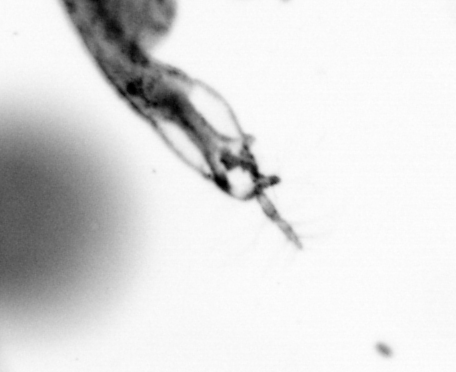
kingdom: Animalia
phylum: Arthropoda
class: Copepoda
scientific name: Copepoda
